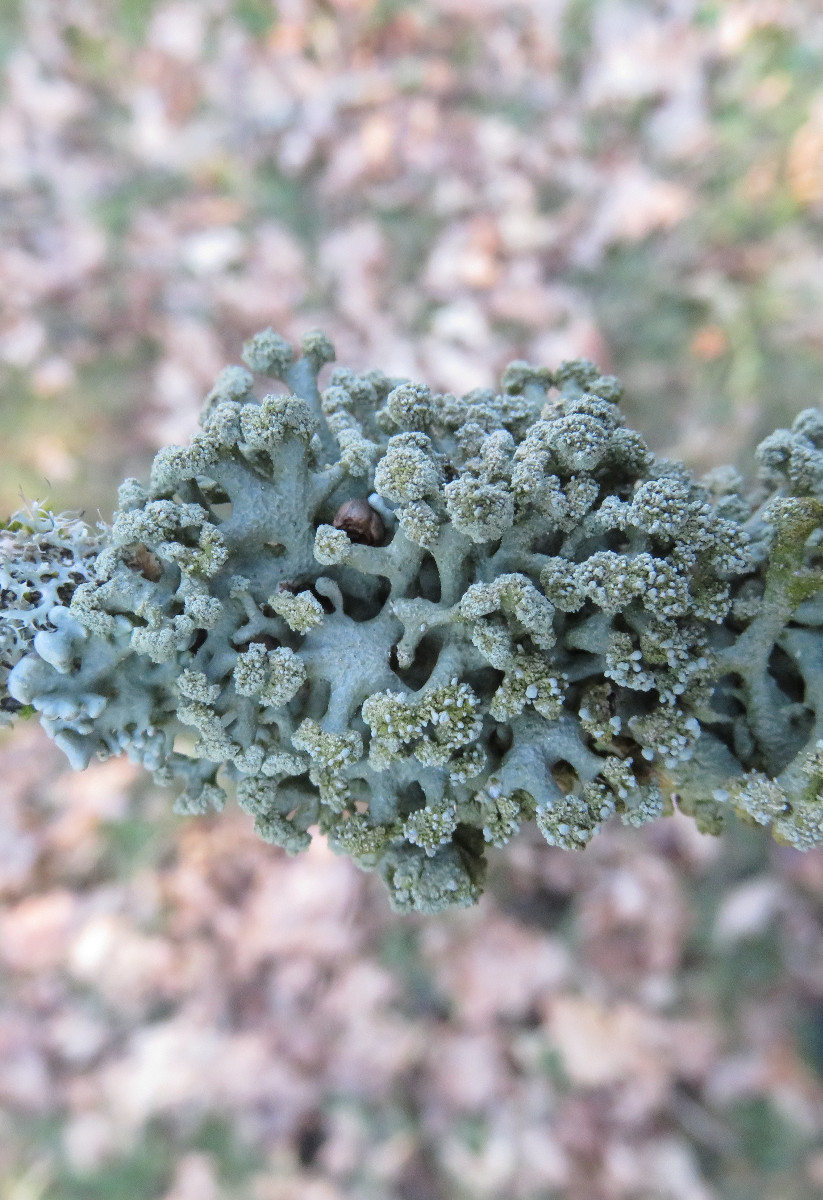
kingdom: Fungi
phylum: Ascomycota
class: Lecanoromycetes
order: Lecanorales
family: Parmeliaceae
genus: Hypogymnia
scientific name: Hypogymnia tubulosa
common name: finger-kvistlav
